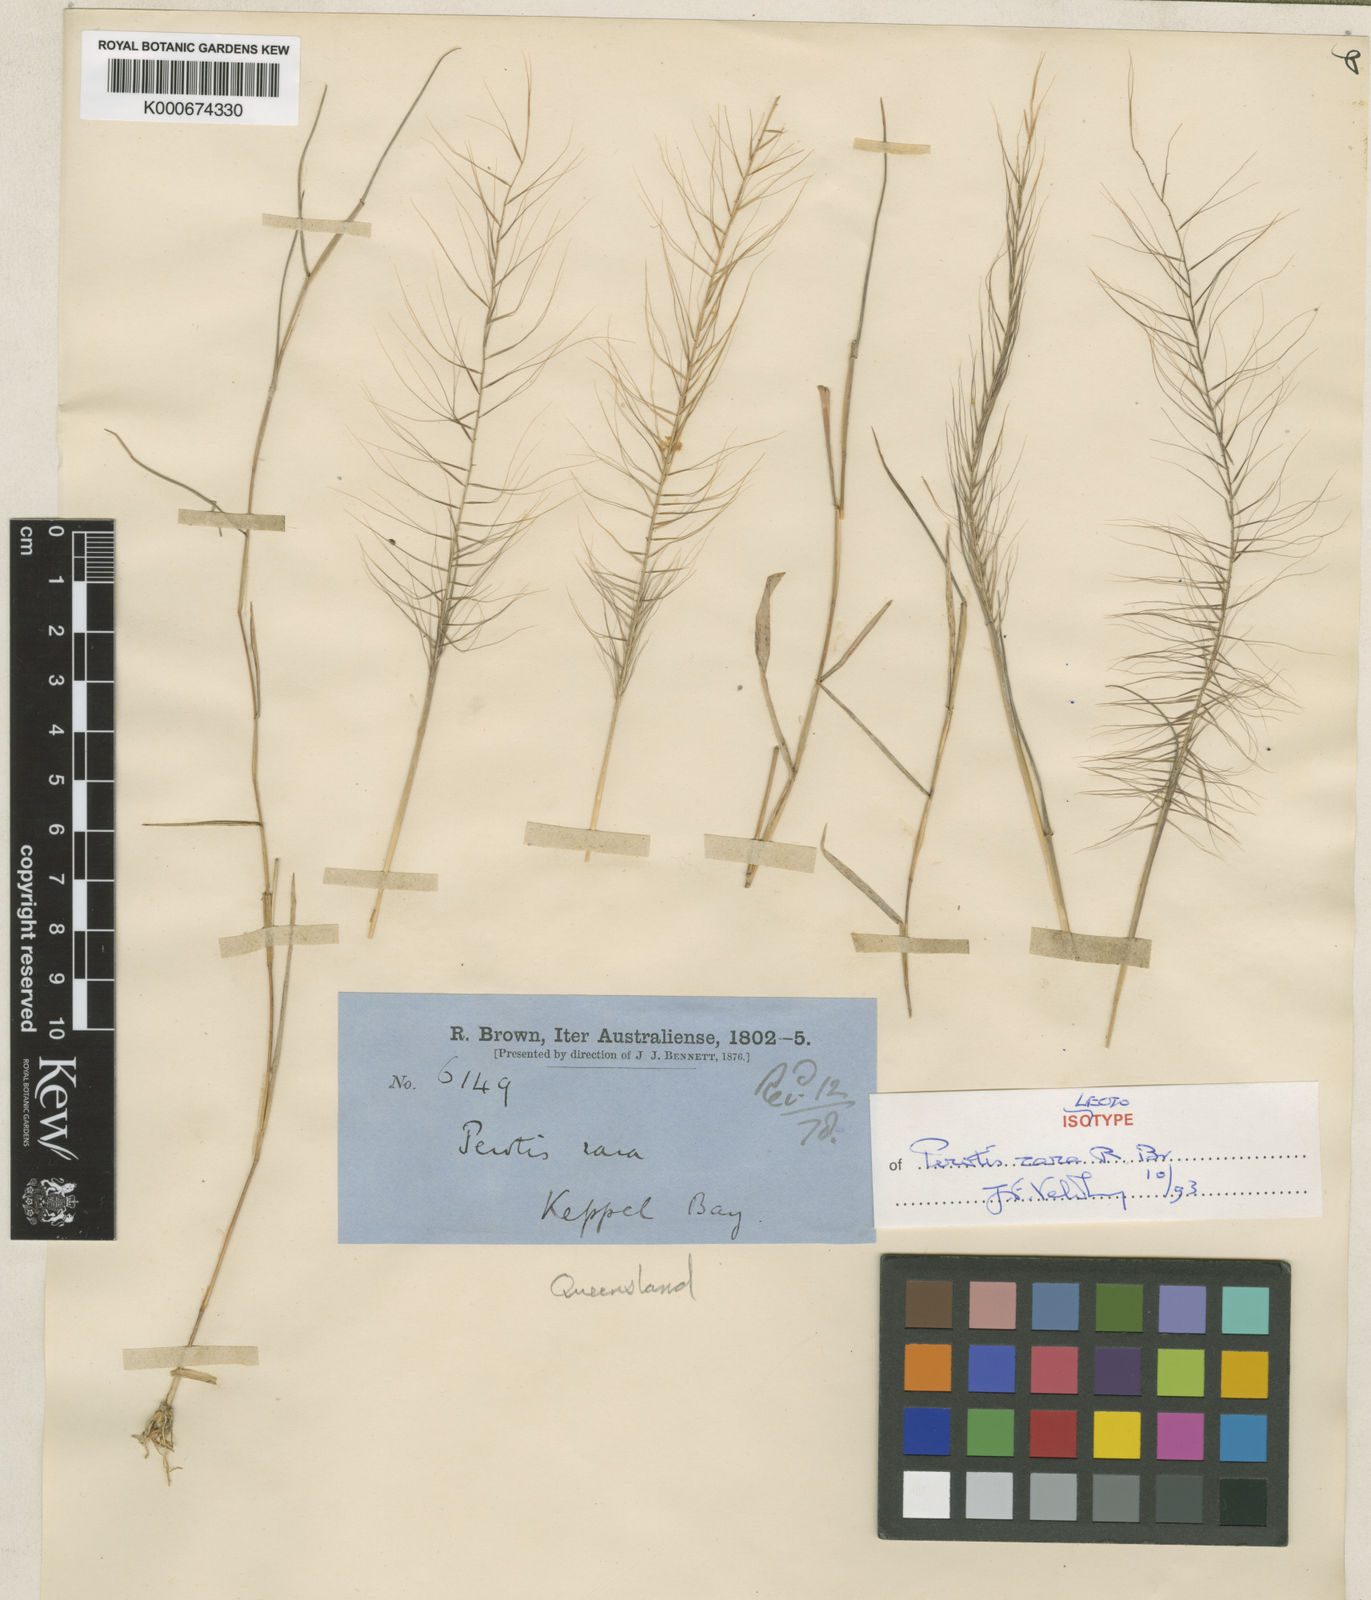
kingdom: Plantae
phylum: Tracheophyta
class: Liliopsida
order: Poales
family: Poaceae
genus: Perotis
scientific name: Perotis rara
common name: Comet grass
